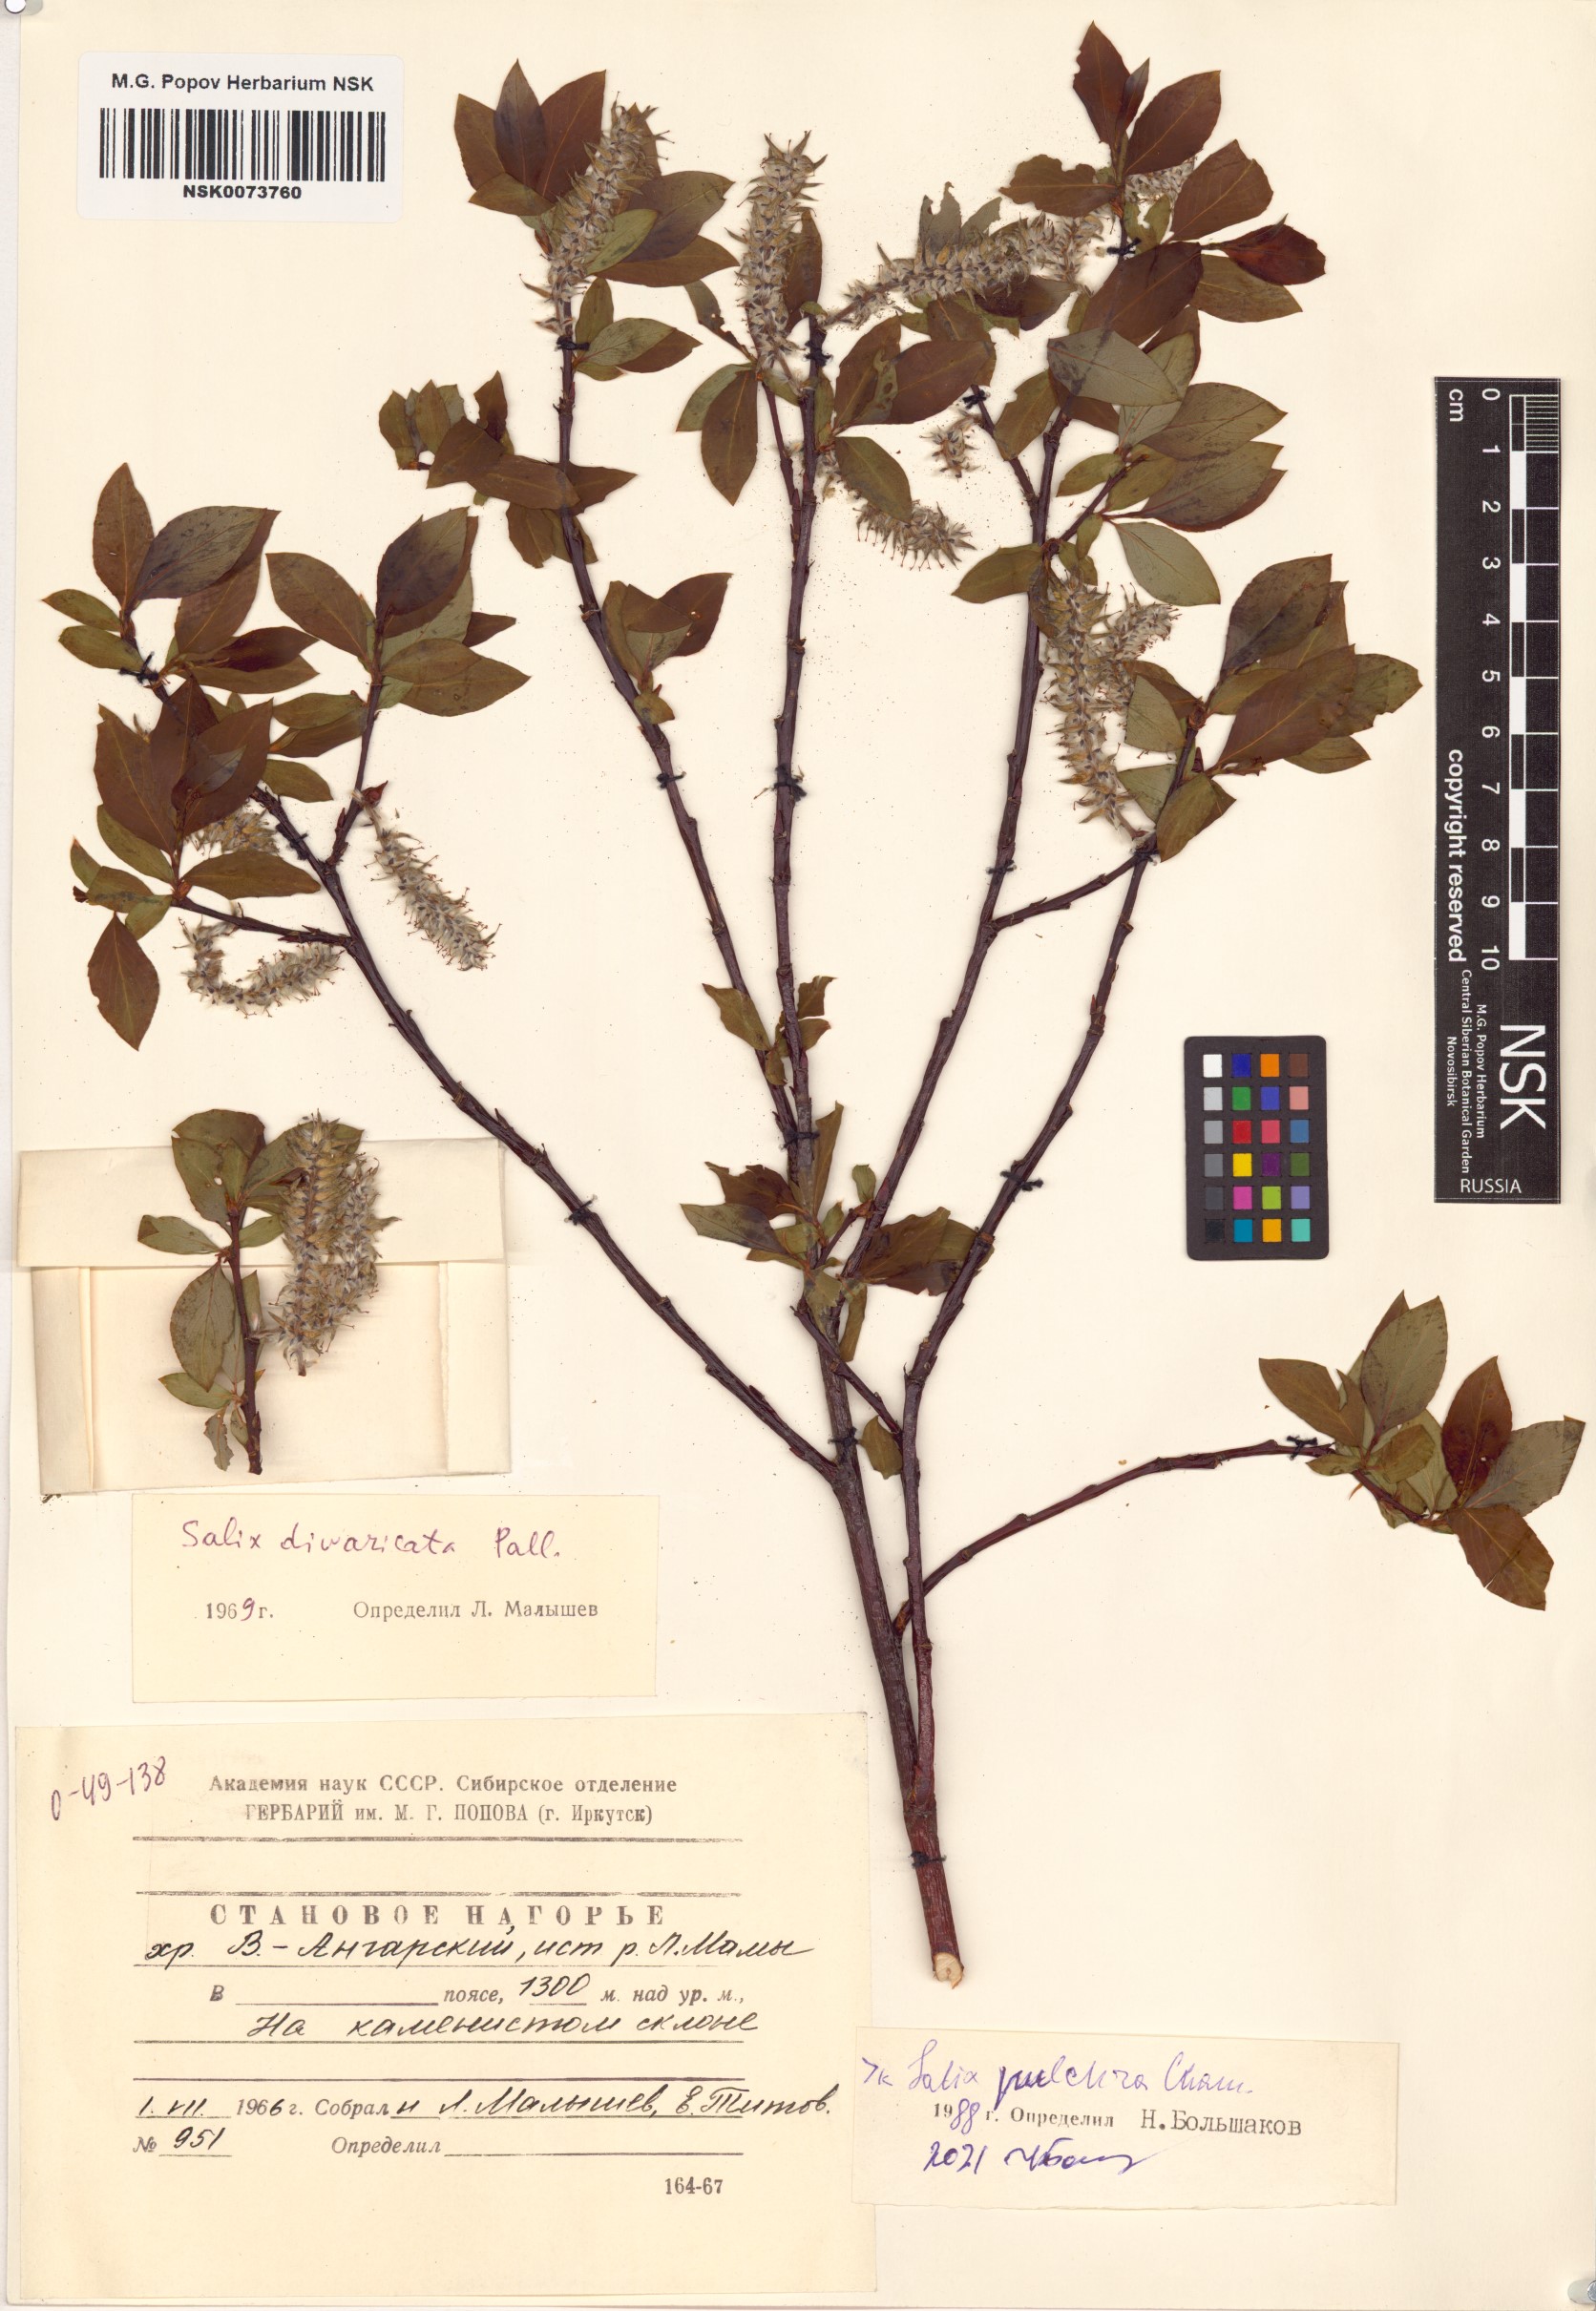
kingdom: Plantae
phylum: Tracheophyta
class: Magnoliopsida
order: Malpighiales
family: Salicaceae
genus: Salix
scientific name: Salix pulchra
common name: Diamond-leaved willow
